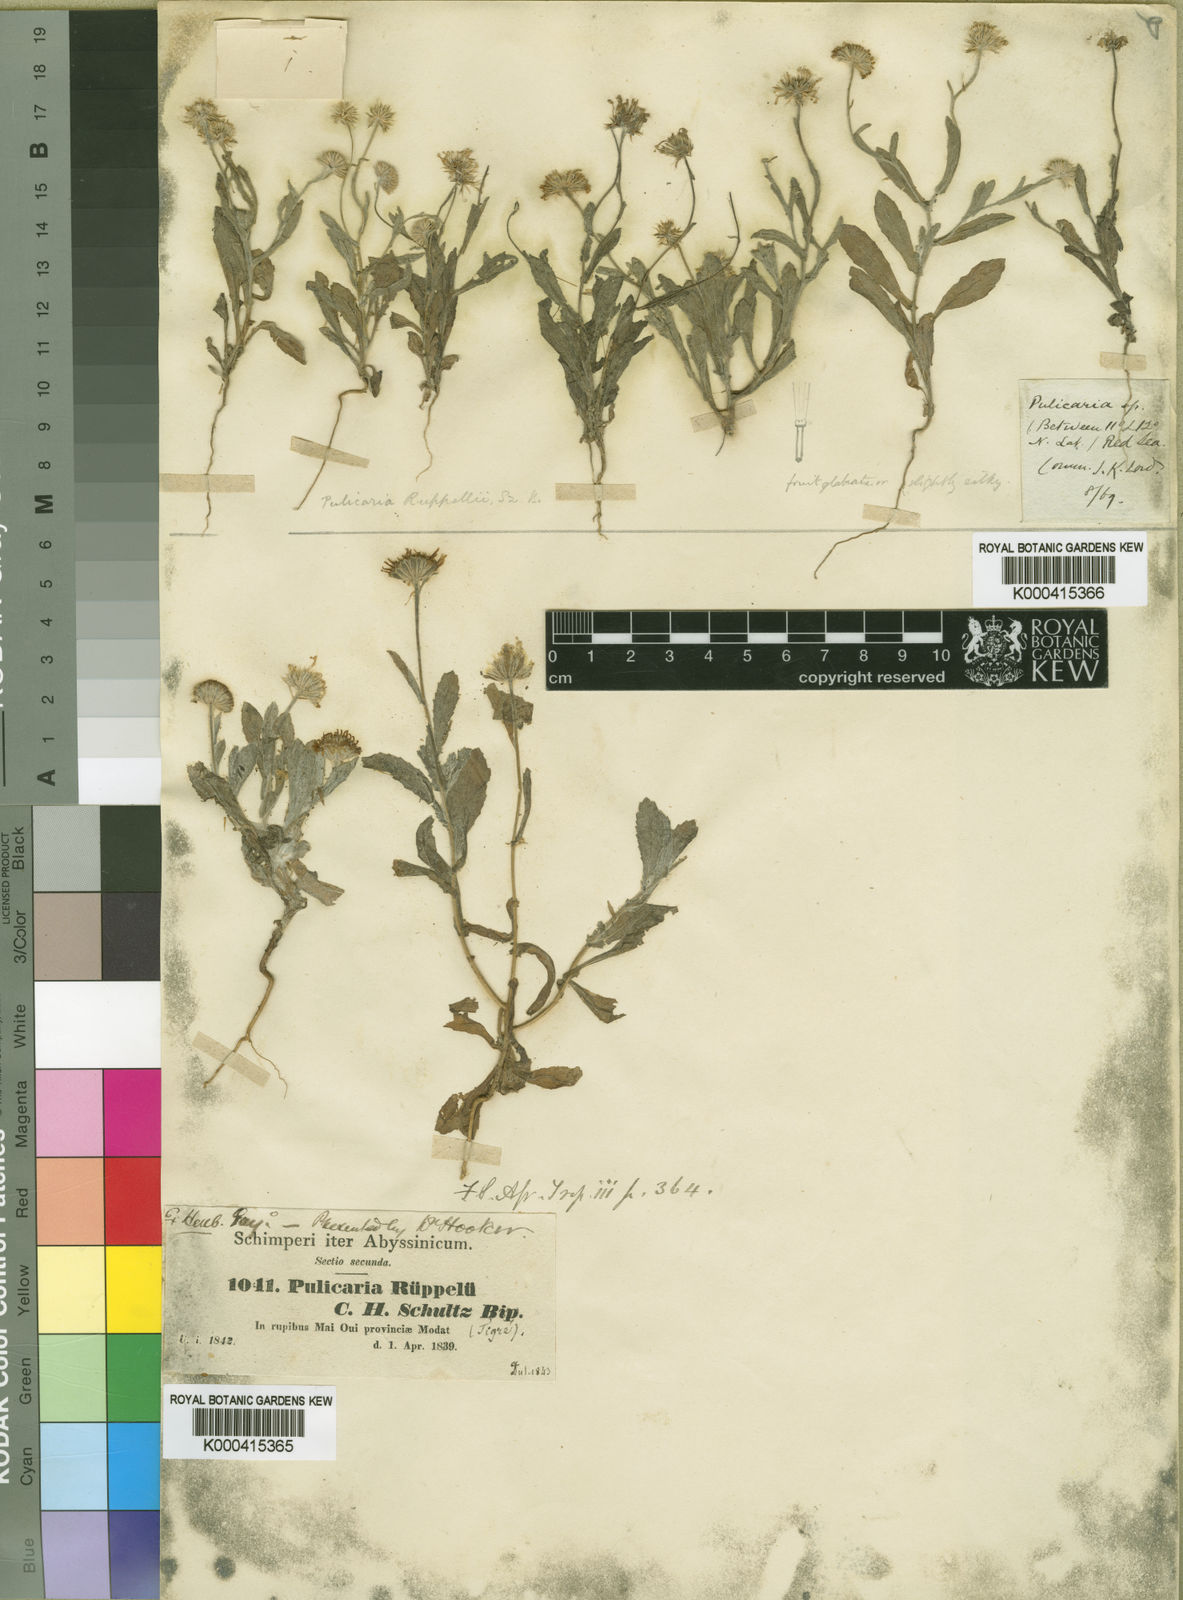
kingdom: Plantae
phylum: Tracheophyta
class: Magnoliopsida
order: Asterales
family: Asteraceae
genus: Pulicaria
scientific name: Pulicaria schimperi
